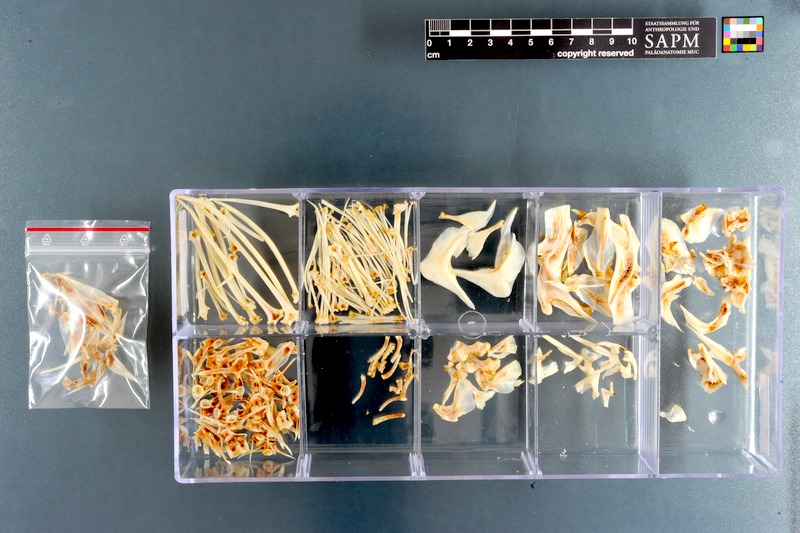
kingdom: Animalia
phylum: Chordata
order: Scorpaeniformes
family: Congiopodidae
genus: Congiopodus
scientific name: Congiopodus torvus
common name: Smooth horsefish
